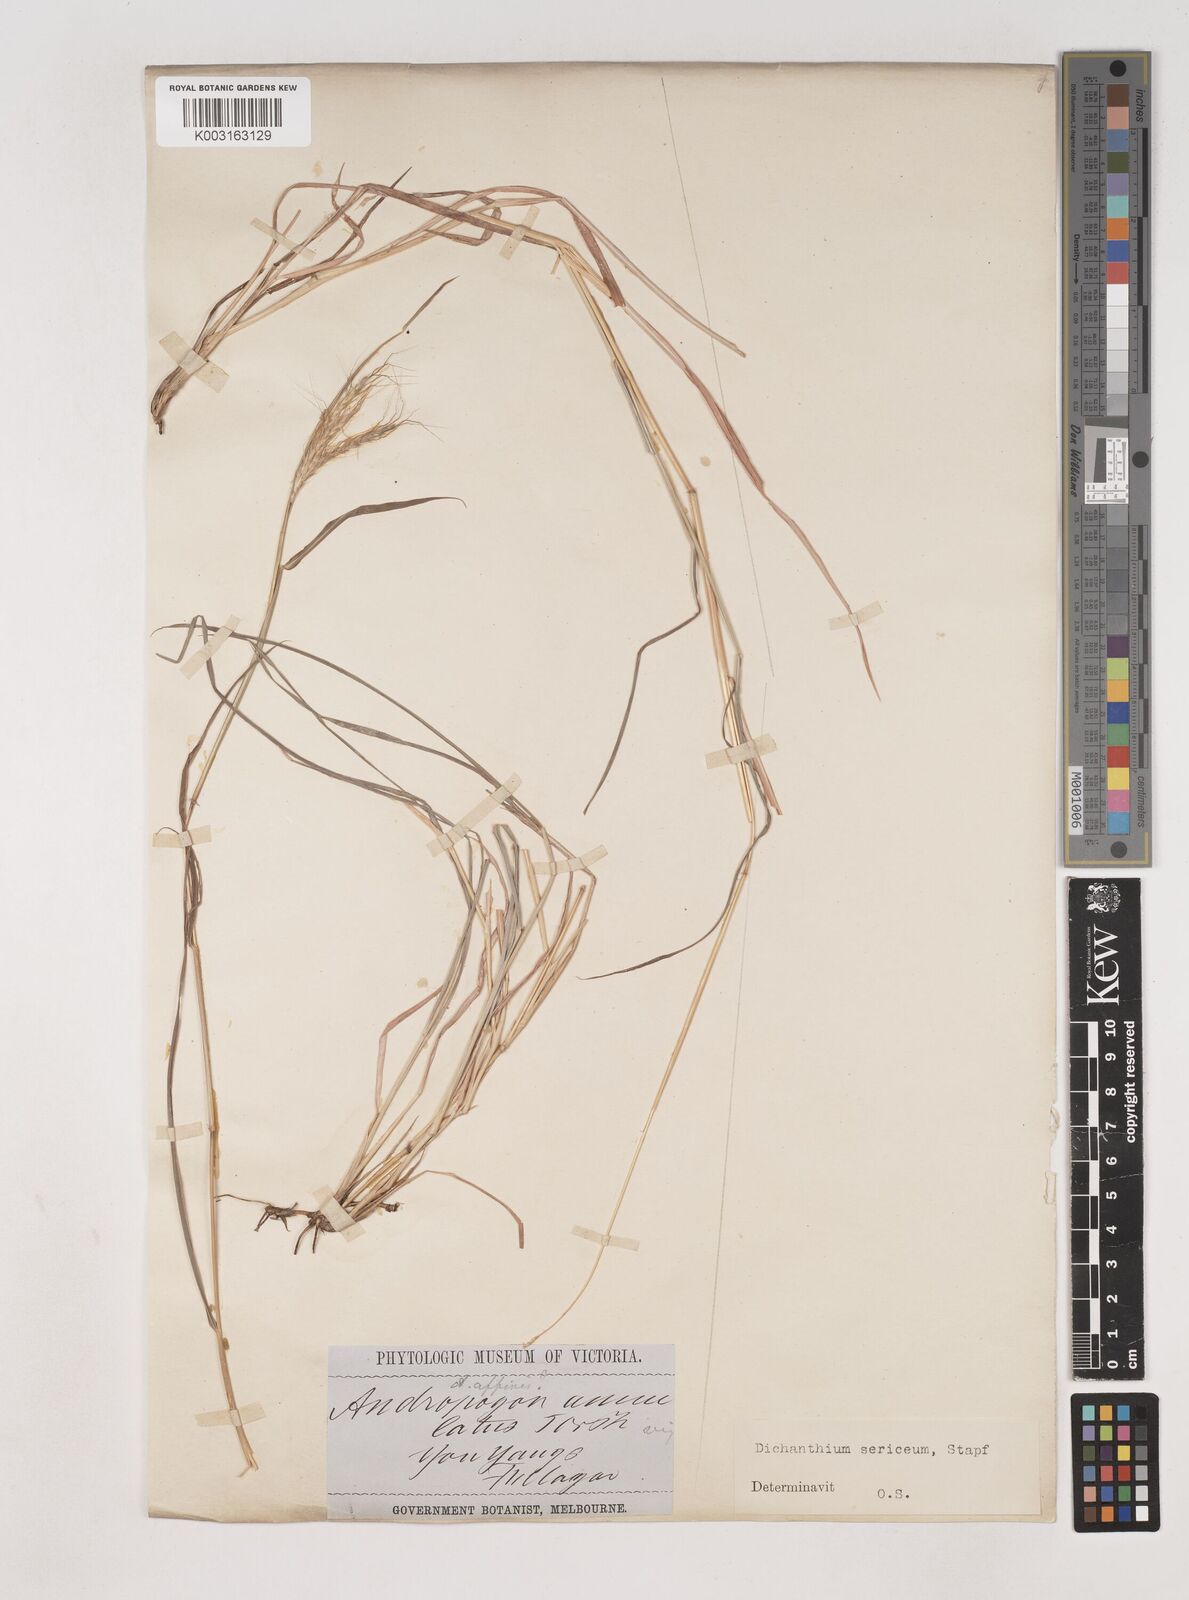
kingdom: Plantae
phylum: Tracheophyta
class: Liliopsida
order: Poales
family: Poaceae
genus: Dichanthium
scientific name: Dichanthium sericeum
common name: Silky bluestem
